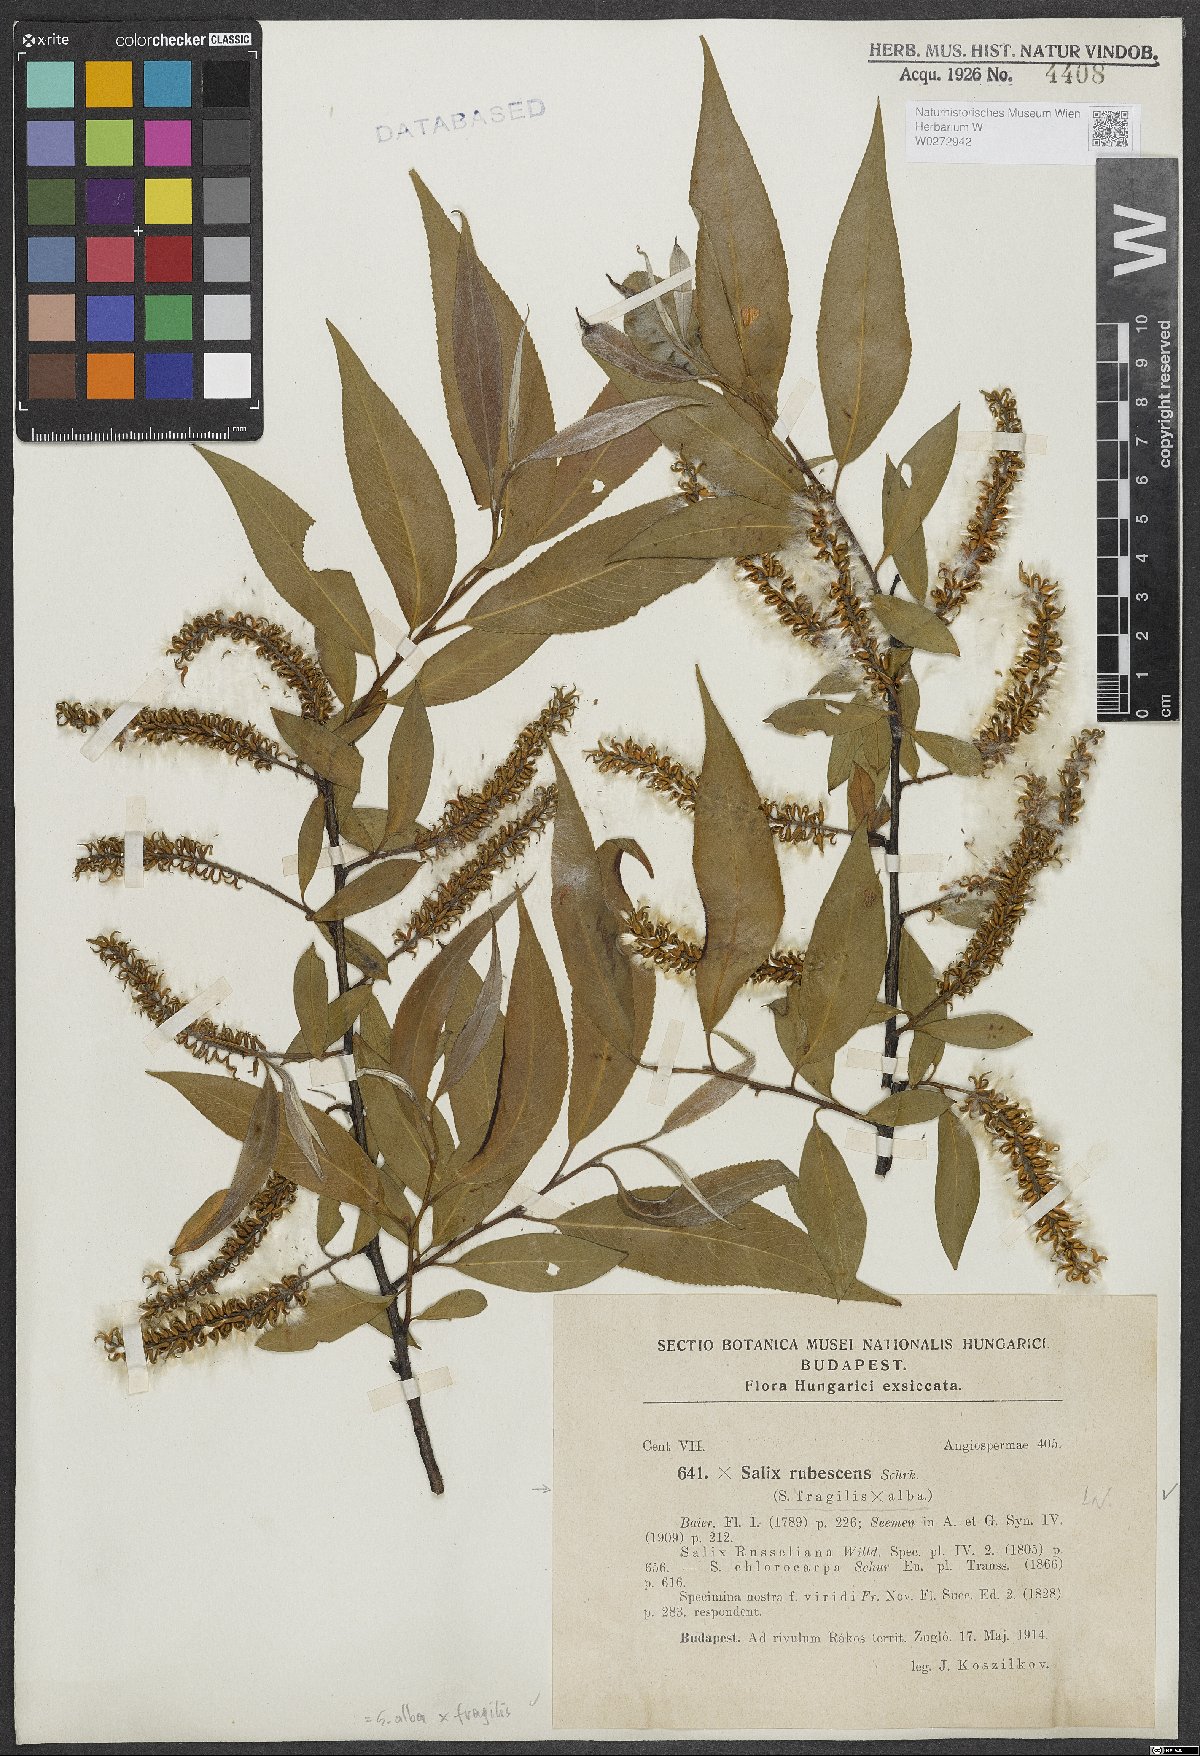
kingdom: Plantae
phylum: Tracheophyta
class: Magnoliopsida
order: Malpighiales
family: Salicaceae
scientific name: Salicaceae
